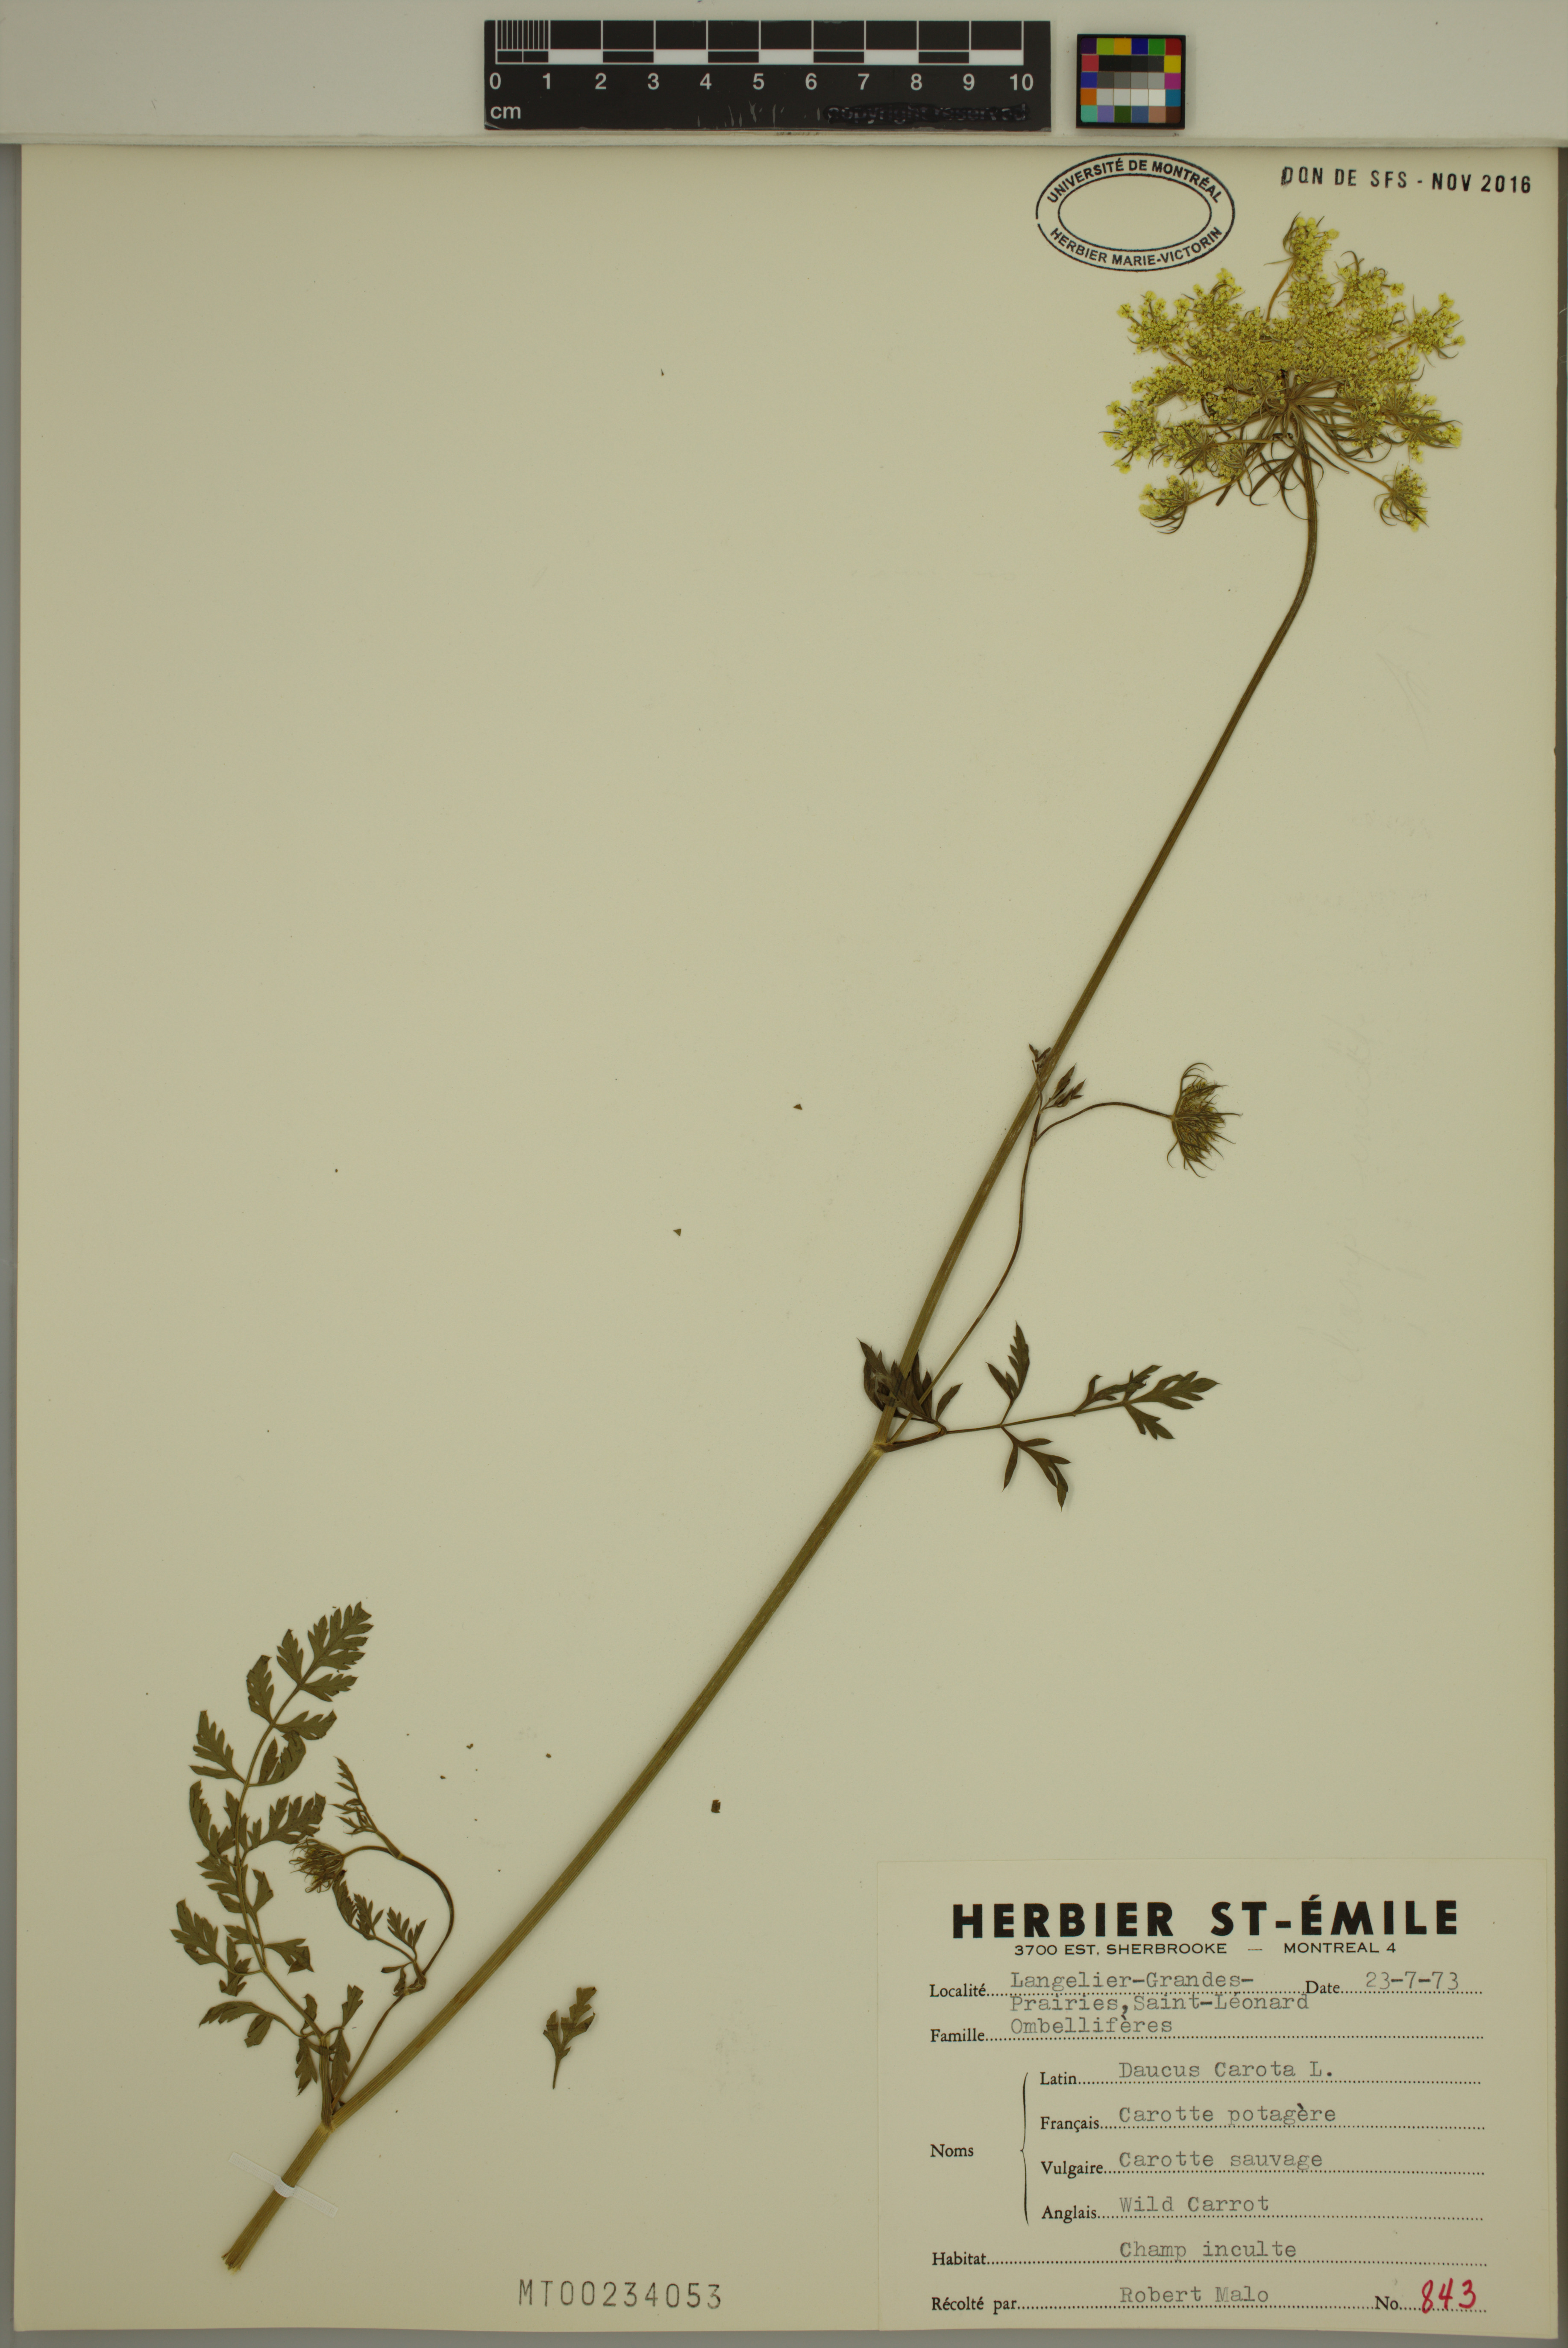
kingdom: Plantae
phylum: Tracheophyta
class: Magnoliopsida
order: Apiales
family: Apiaceae
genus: Daucus
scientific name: Daucus carota
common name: Wild carrot
